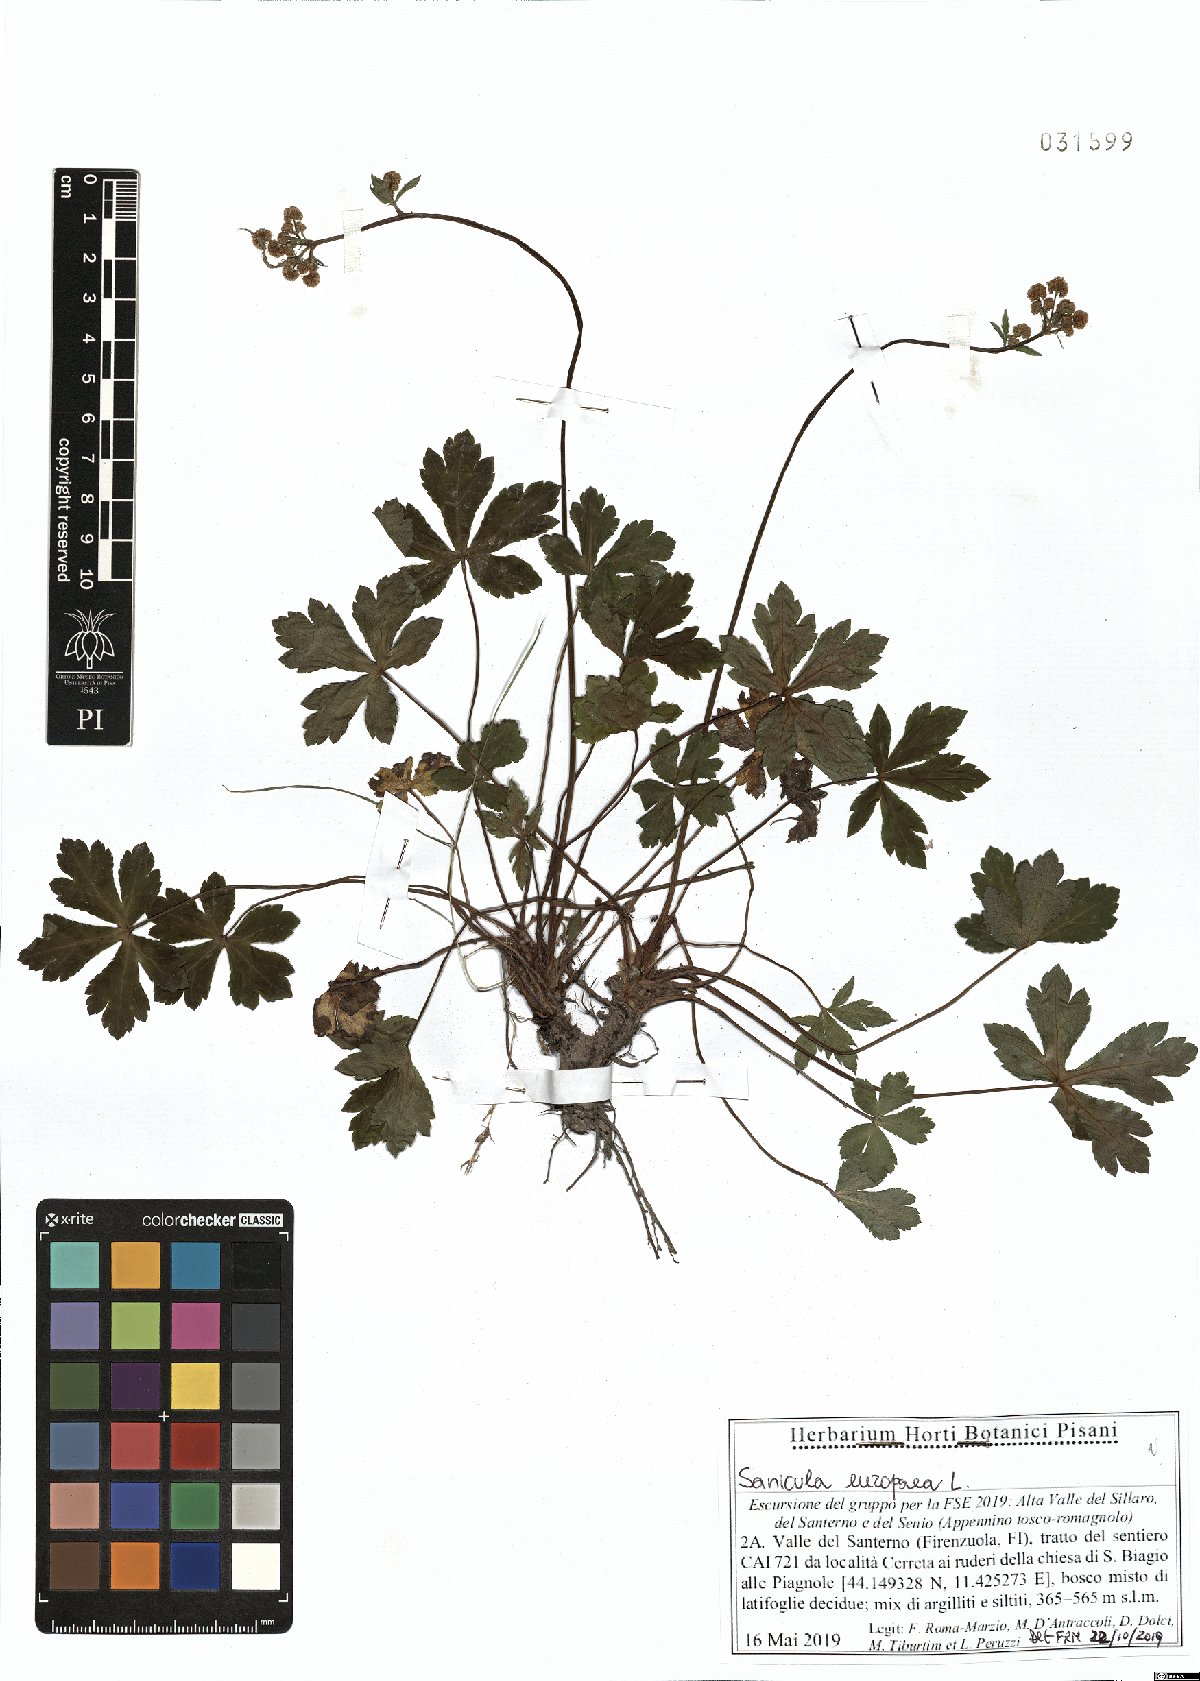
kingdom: Plantae
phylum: Tracheophyta
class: Magnoliopsida
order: Apiales
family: Apiaceae
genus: Sanicula
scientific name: Sanicula europaea
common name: Sanicle
